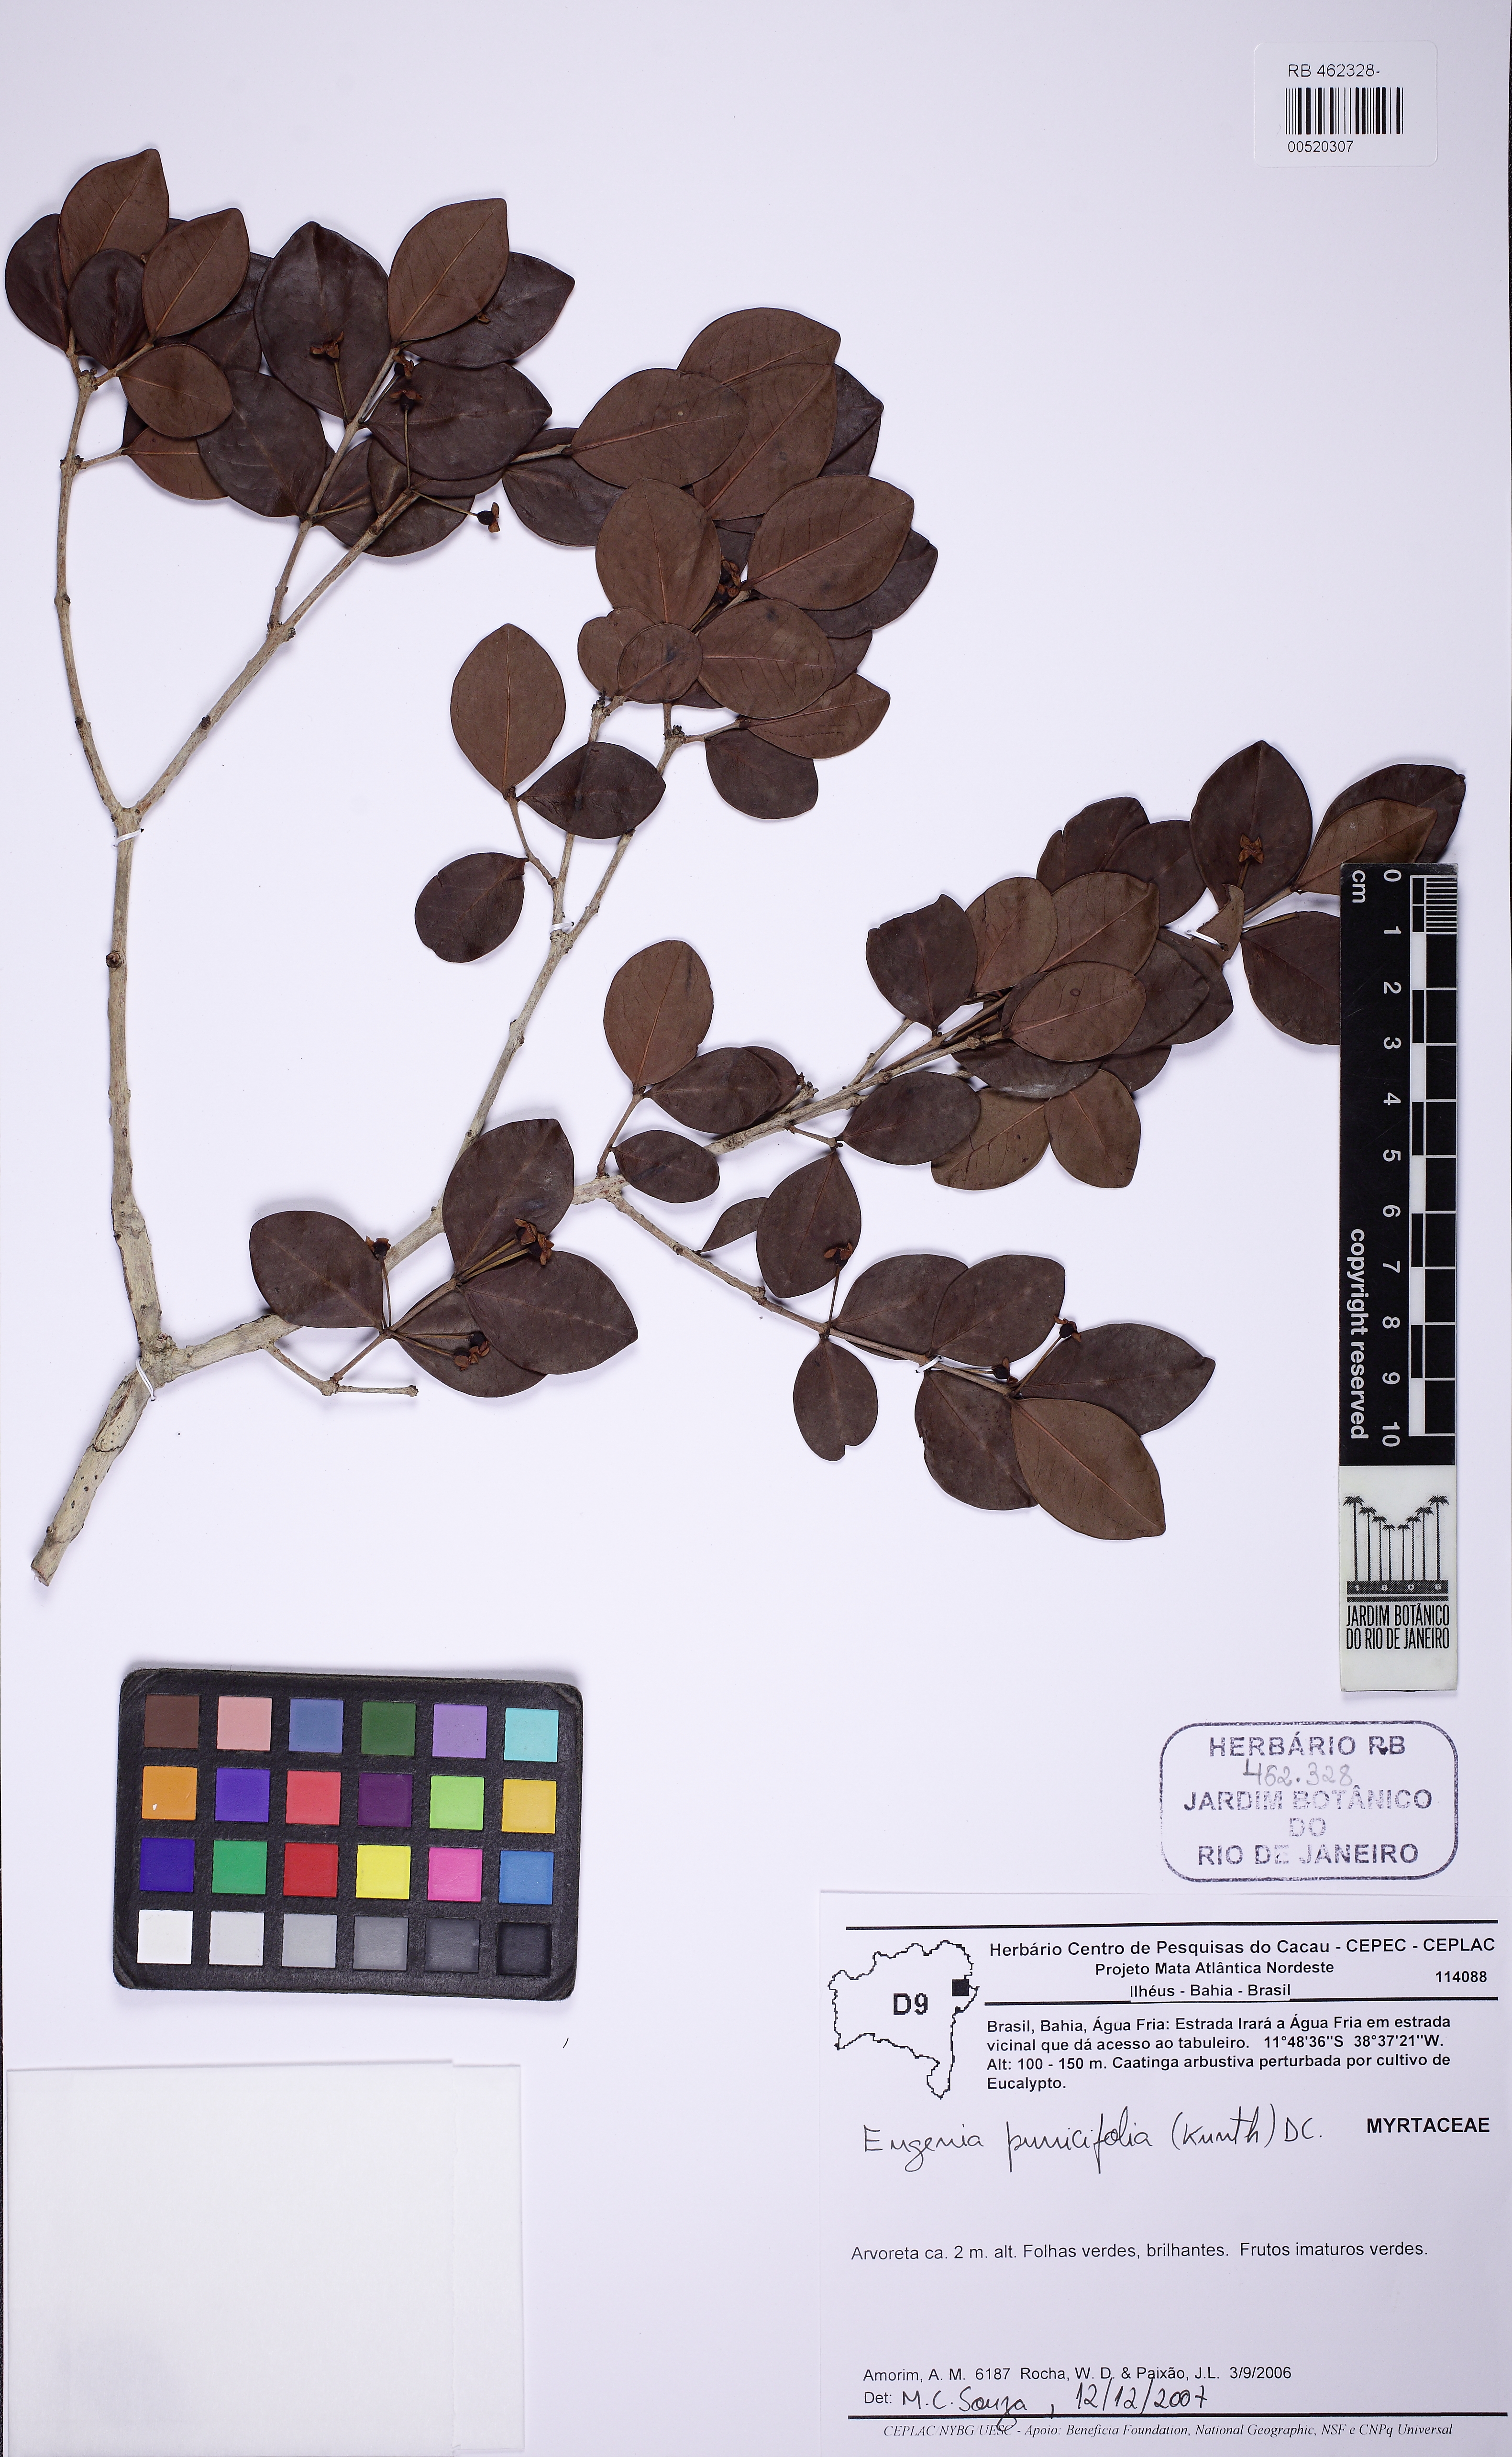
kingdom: Plantae
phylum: Tracheophyta
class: Magnoliopsida
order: Myrtales
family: Myrtaceae
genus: Eugenia
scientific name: Eugenia punicifolia
